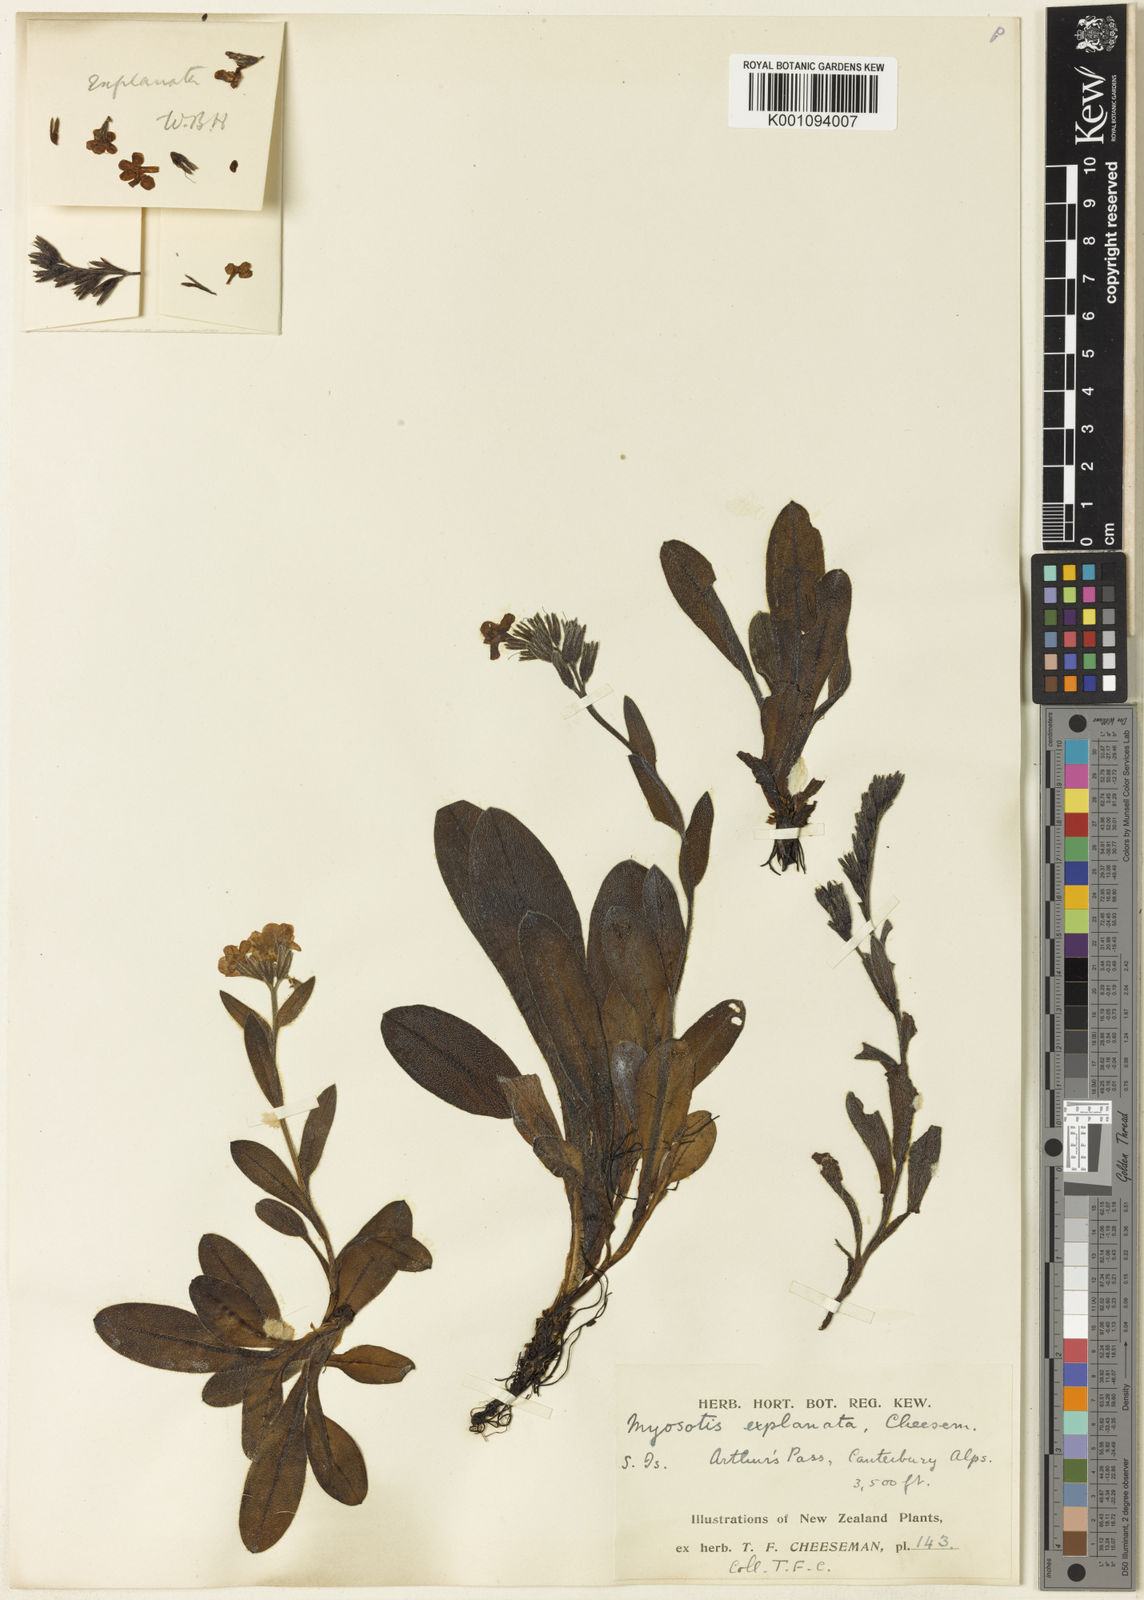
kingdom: Plantae
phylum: Tracheophyta
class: Magnoliopsida
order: Boraginales
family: Boraginaceae
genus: Myosotis
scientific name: Myosotis explanata
